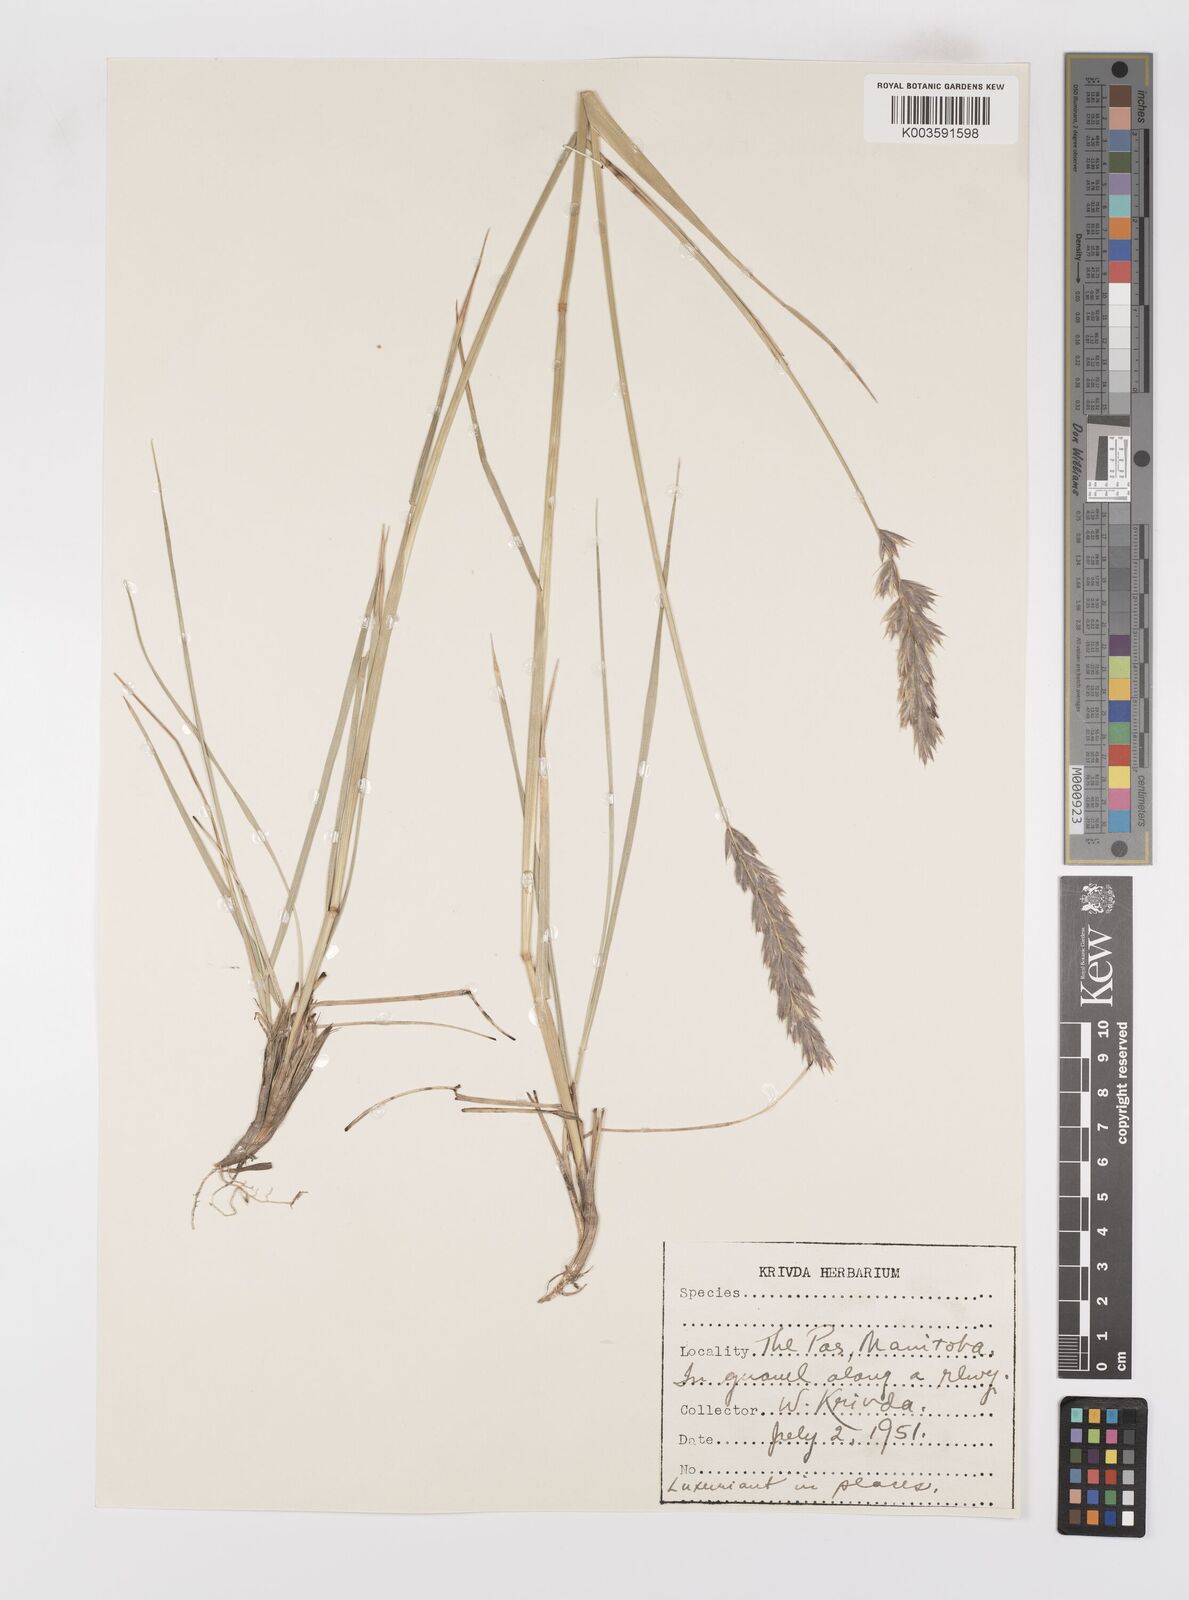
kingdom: Plantae
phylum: Tracheophyta
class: Liliopsida
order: Poales
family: Poaceae
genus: Leymus
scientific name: Leymus innovatus
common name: Boreal wild rye
